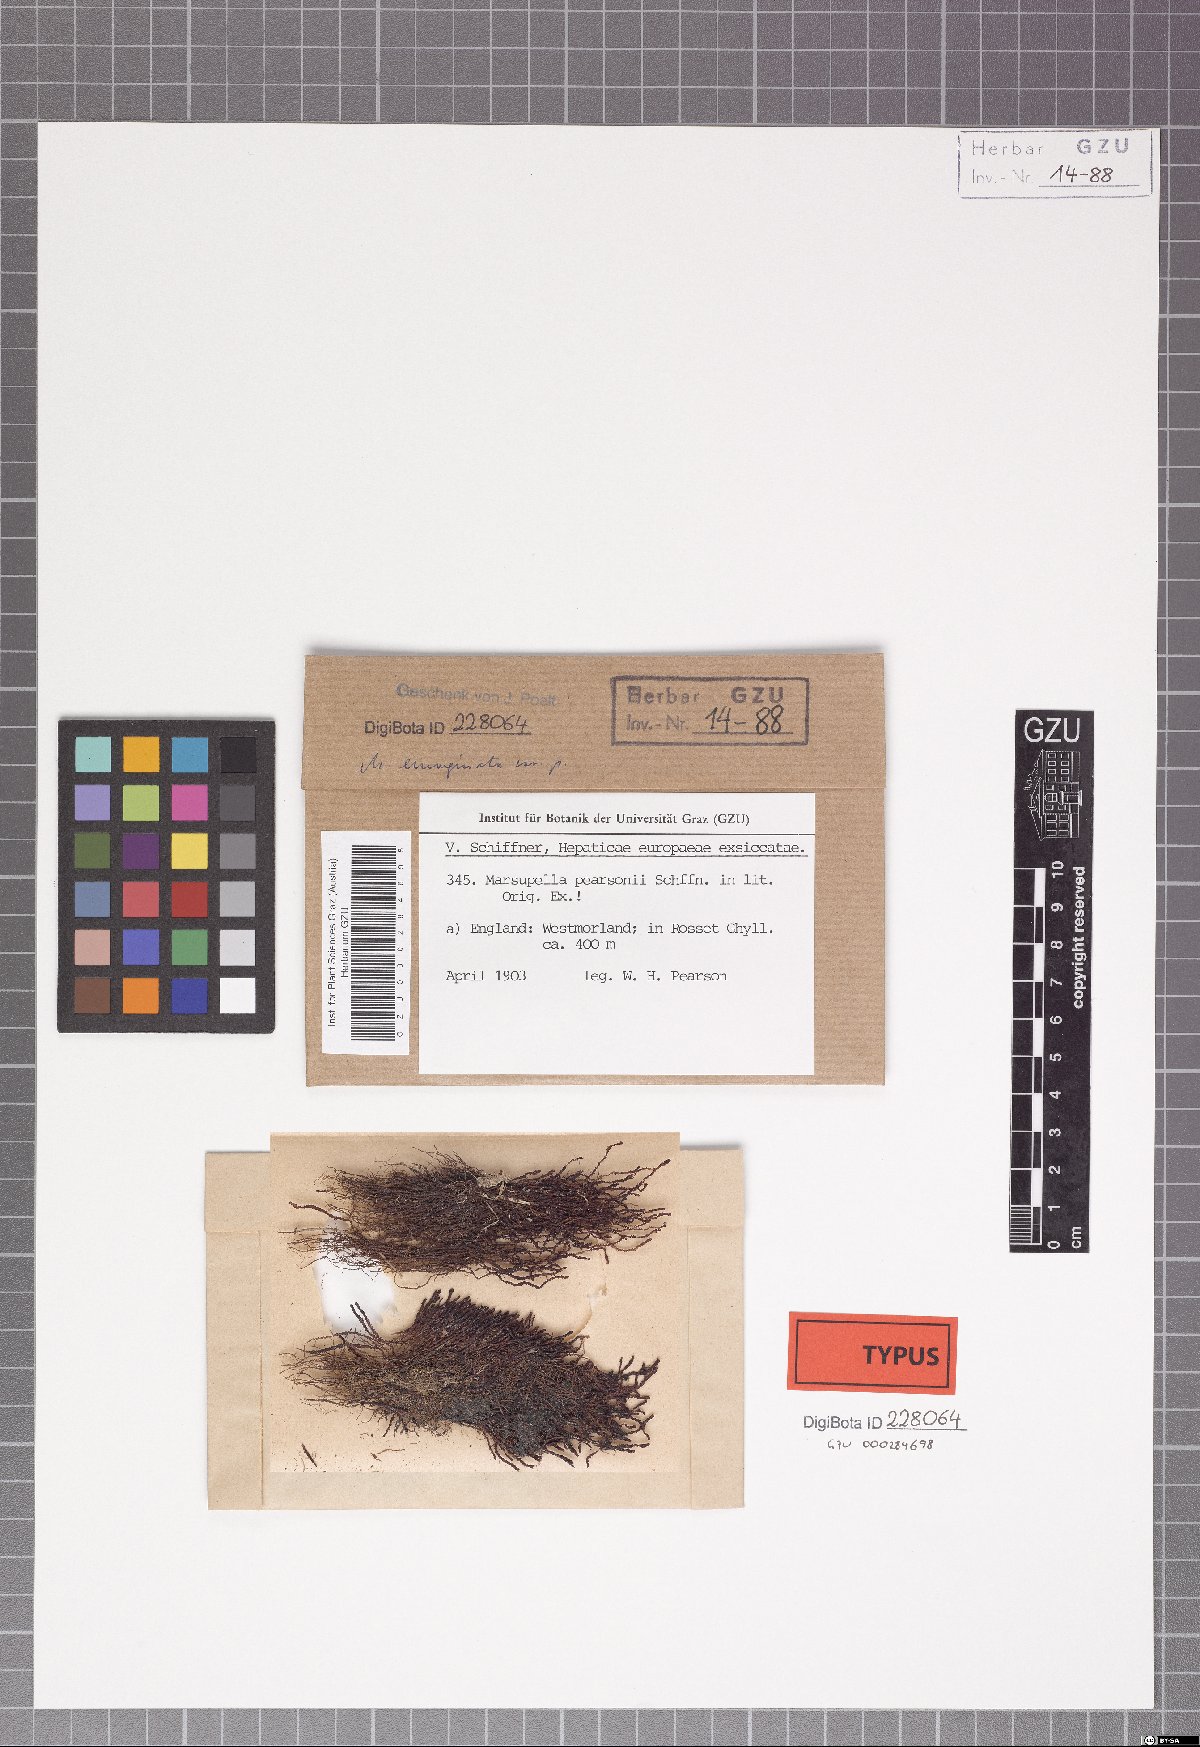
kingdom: Plantae
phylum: Marchantiophyta
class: Jungermanniopsida
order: Jungermanniales
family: Gymnomitriaceae
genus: Marsupella
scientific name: Marsupella emarginata
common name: Notched rustwort
